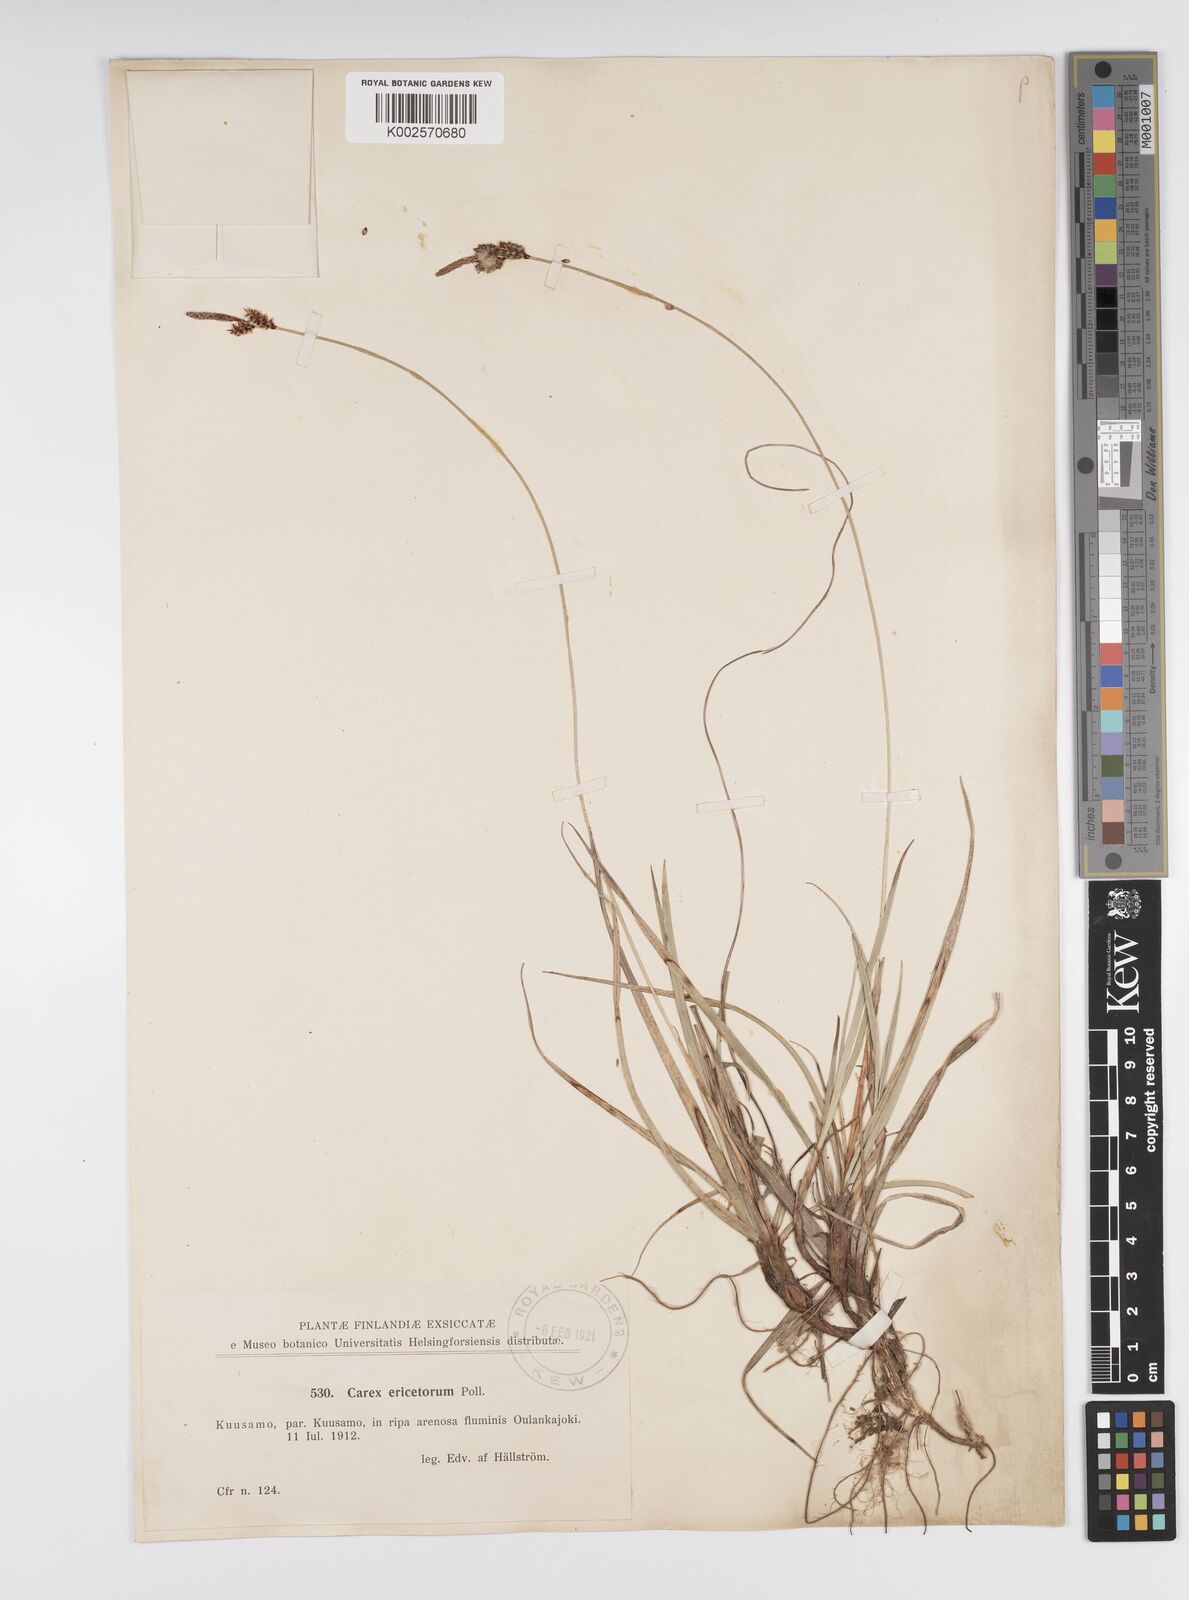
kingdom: Plantae
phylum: Tracheophyta
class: Liliopsida
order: Poales
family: Cyperaceae
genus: Carex
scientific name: Carex ericetorum
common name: Rare spring-sedge
